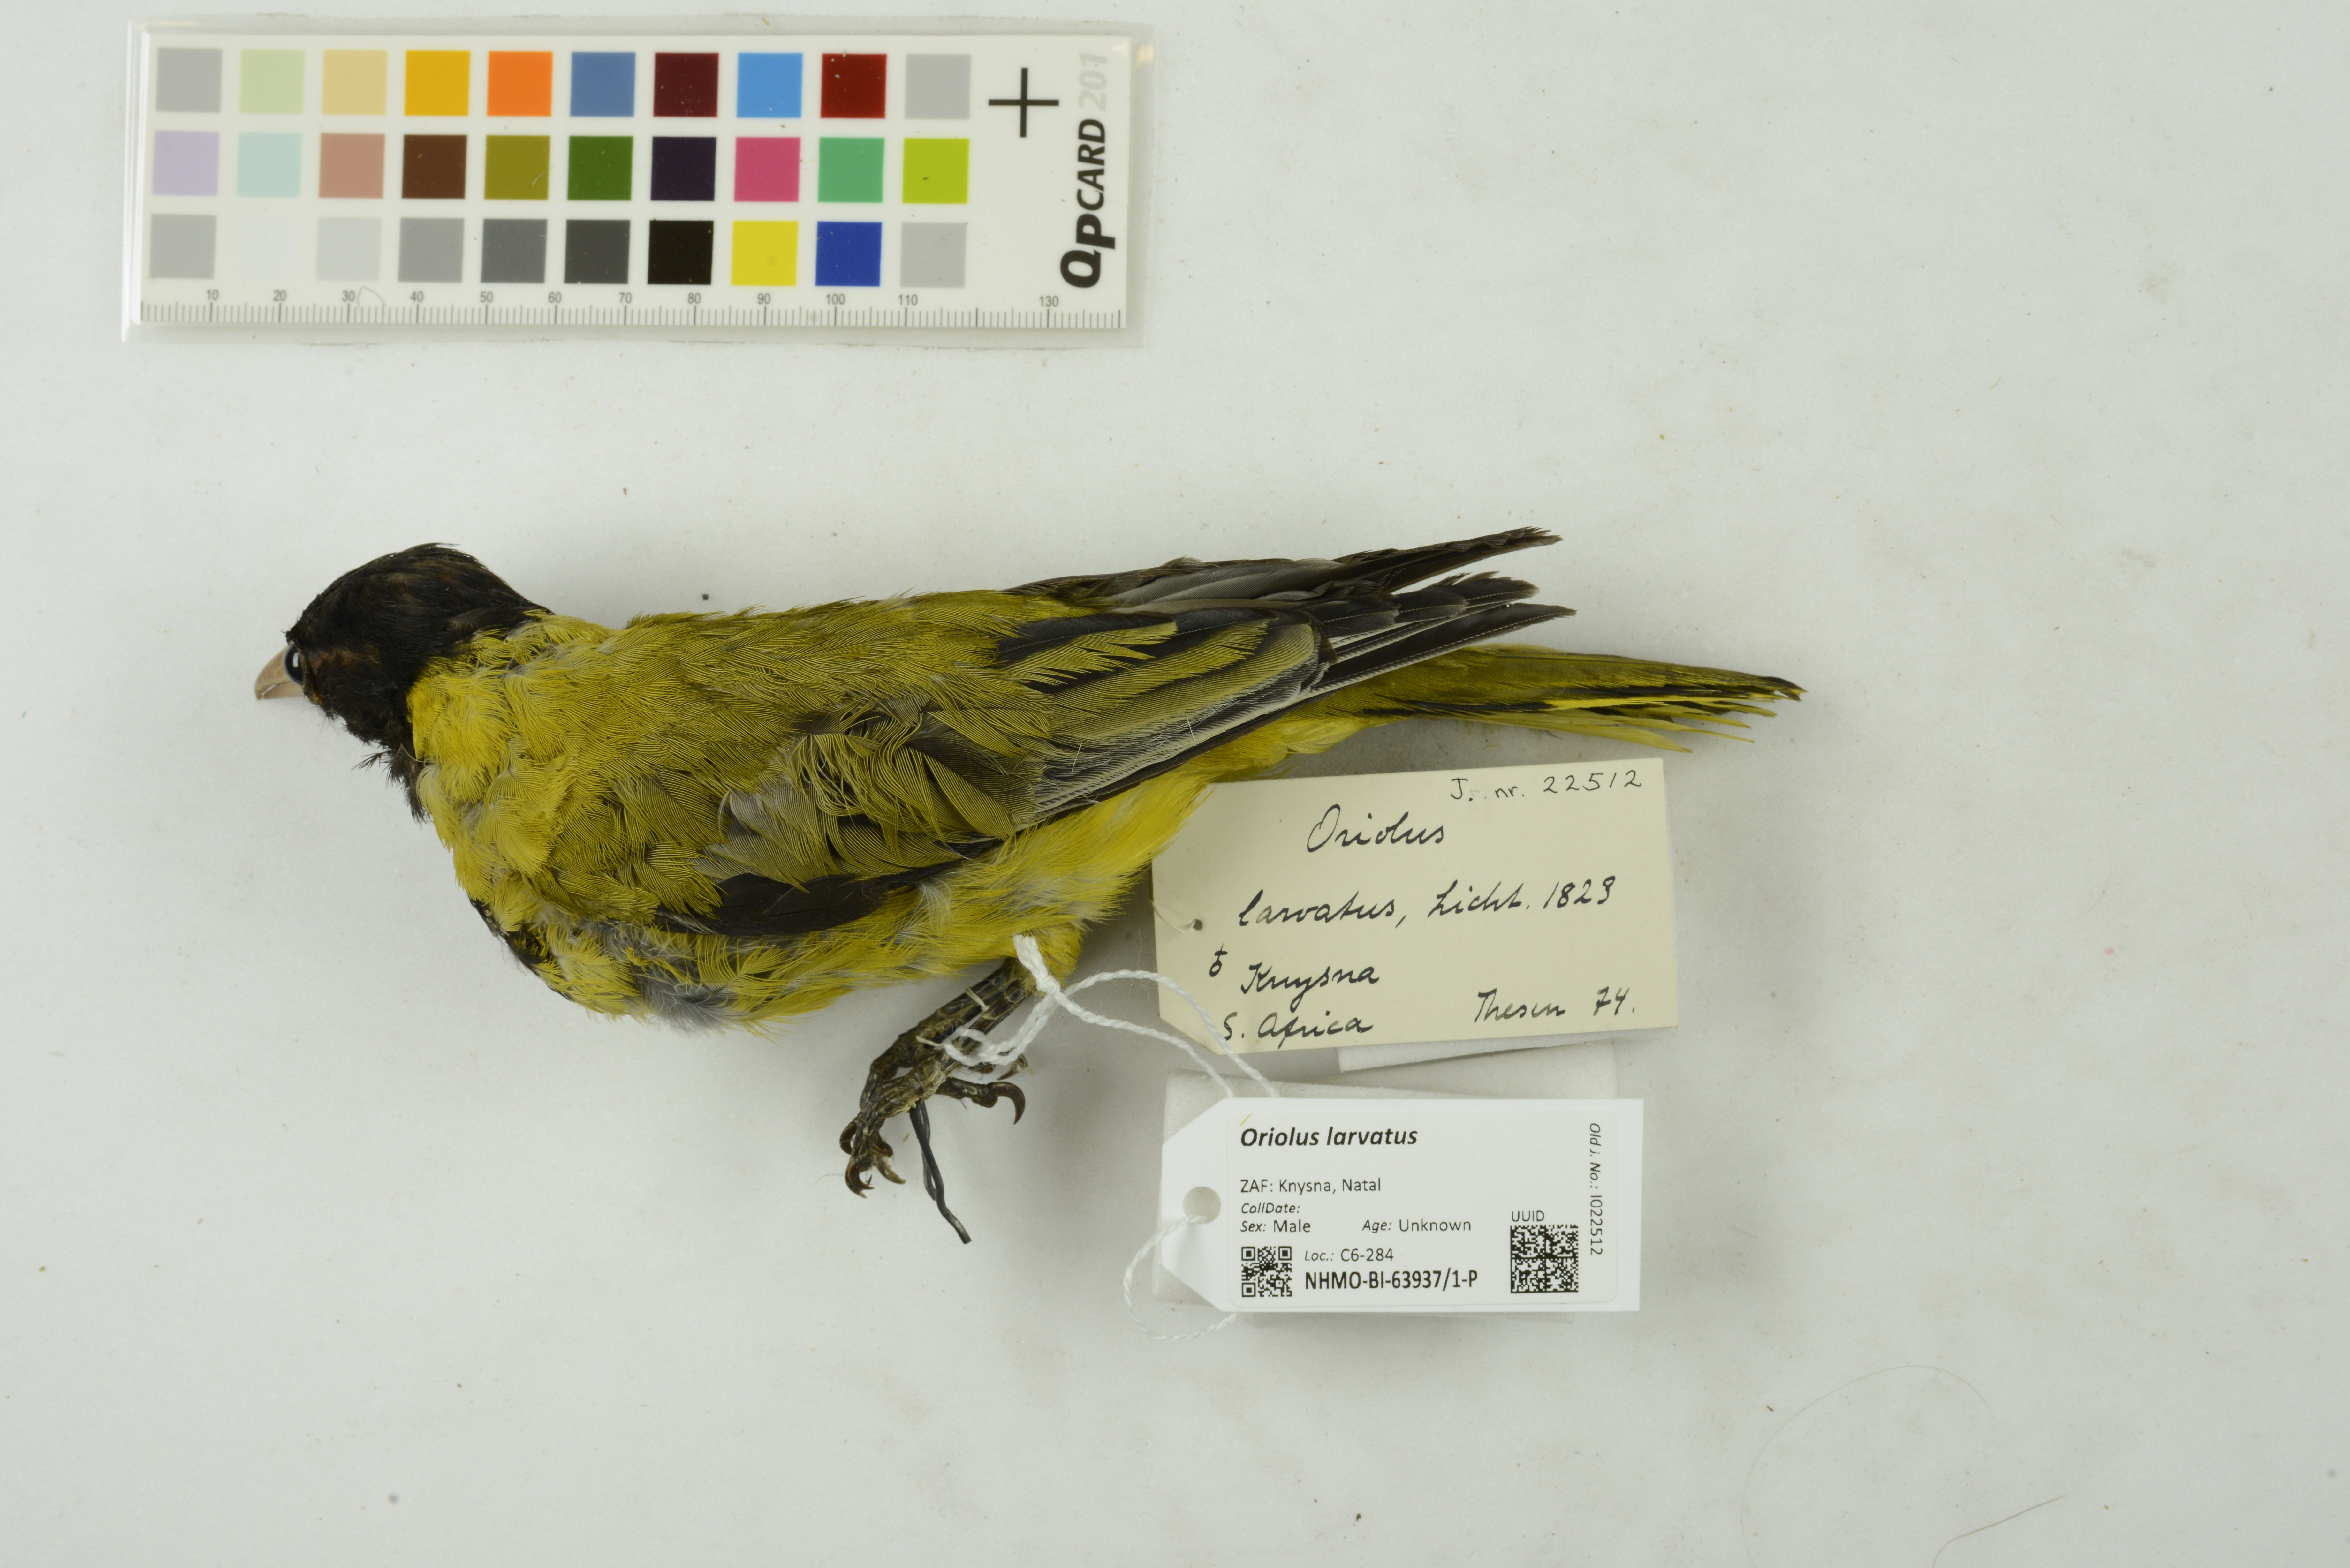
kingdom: Animalia
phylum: Chordata
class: Aves
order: Passeriformes
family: Oriolidae
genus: Oriolus
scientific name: Oriolus larvatus
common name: Black-headed oriole
